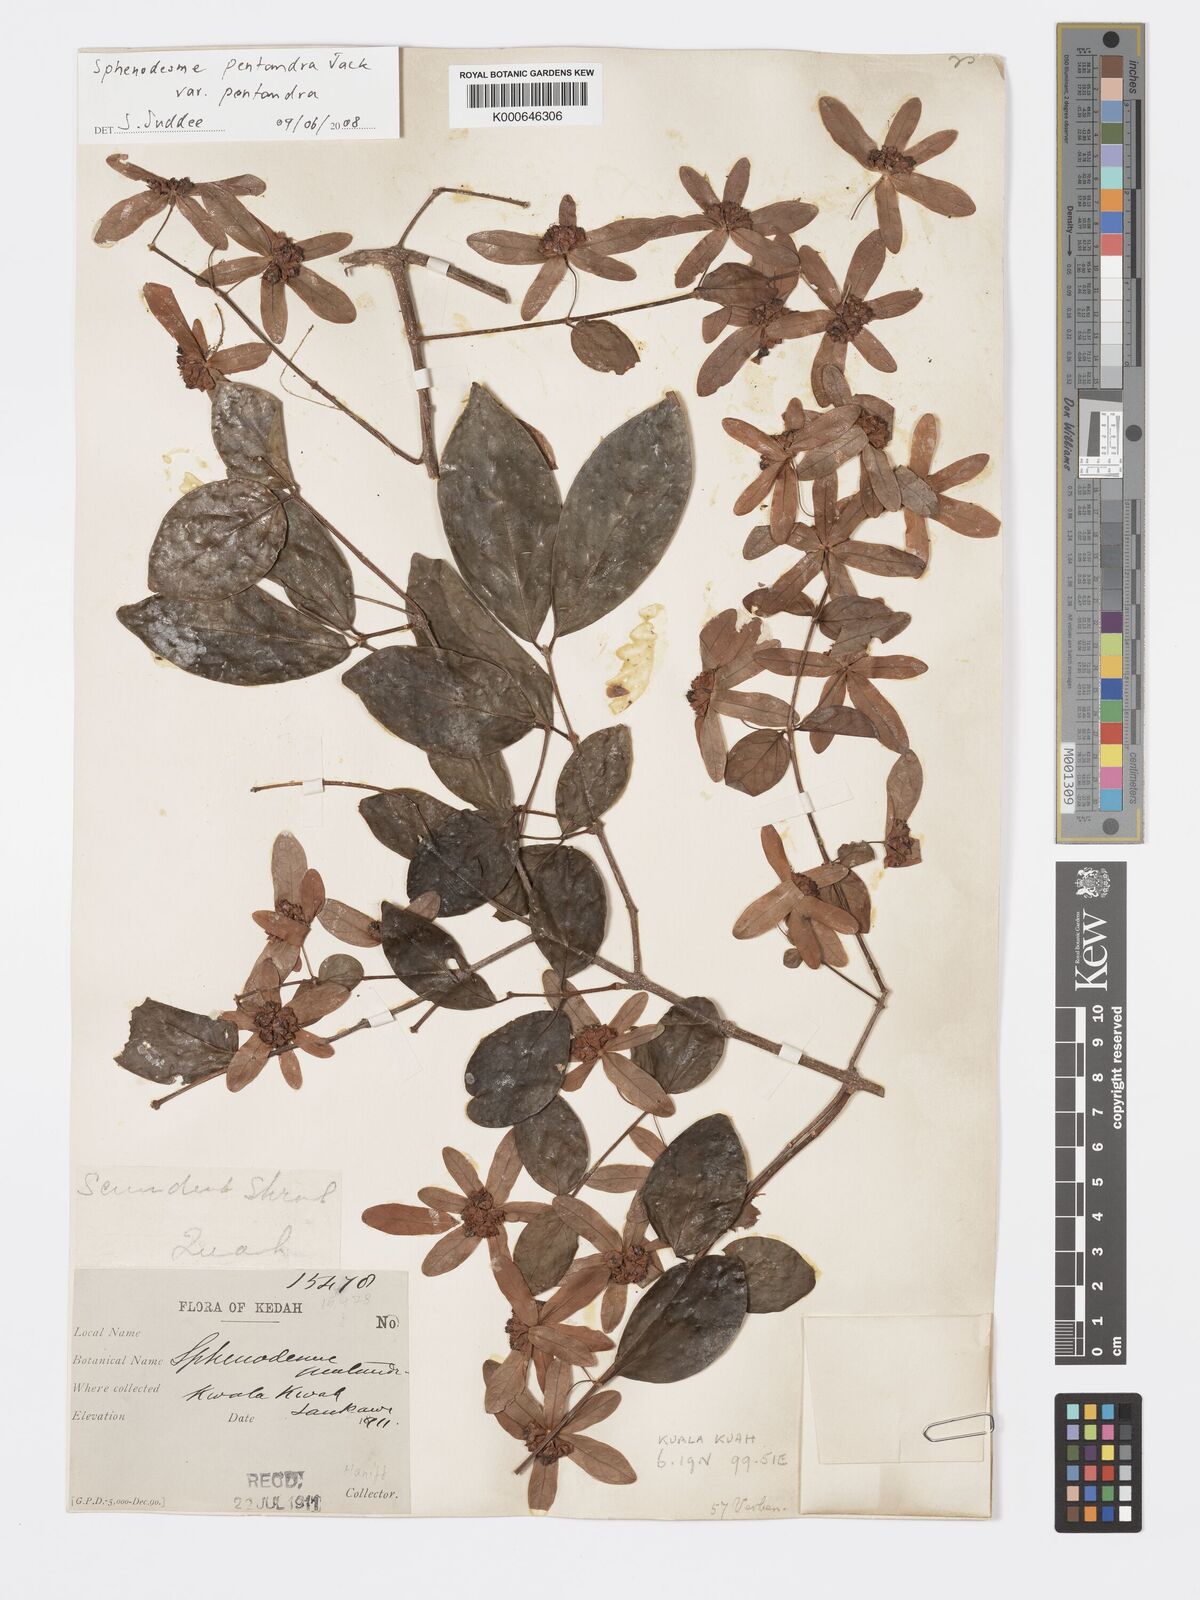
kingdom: Plantae
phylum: Tracheophyta
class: Magnoliopsida
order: Lamiales
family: Lamiaceae
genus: Sphenodesme
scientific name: Sphenodesme pentandra
